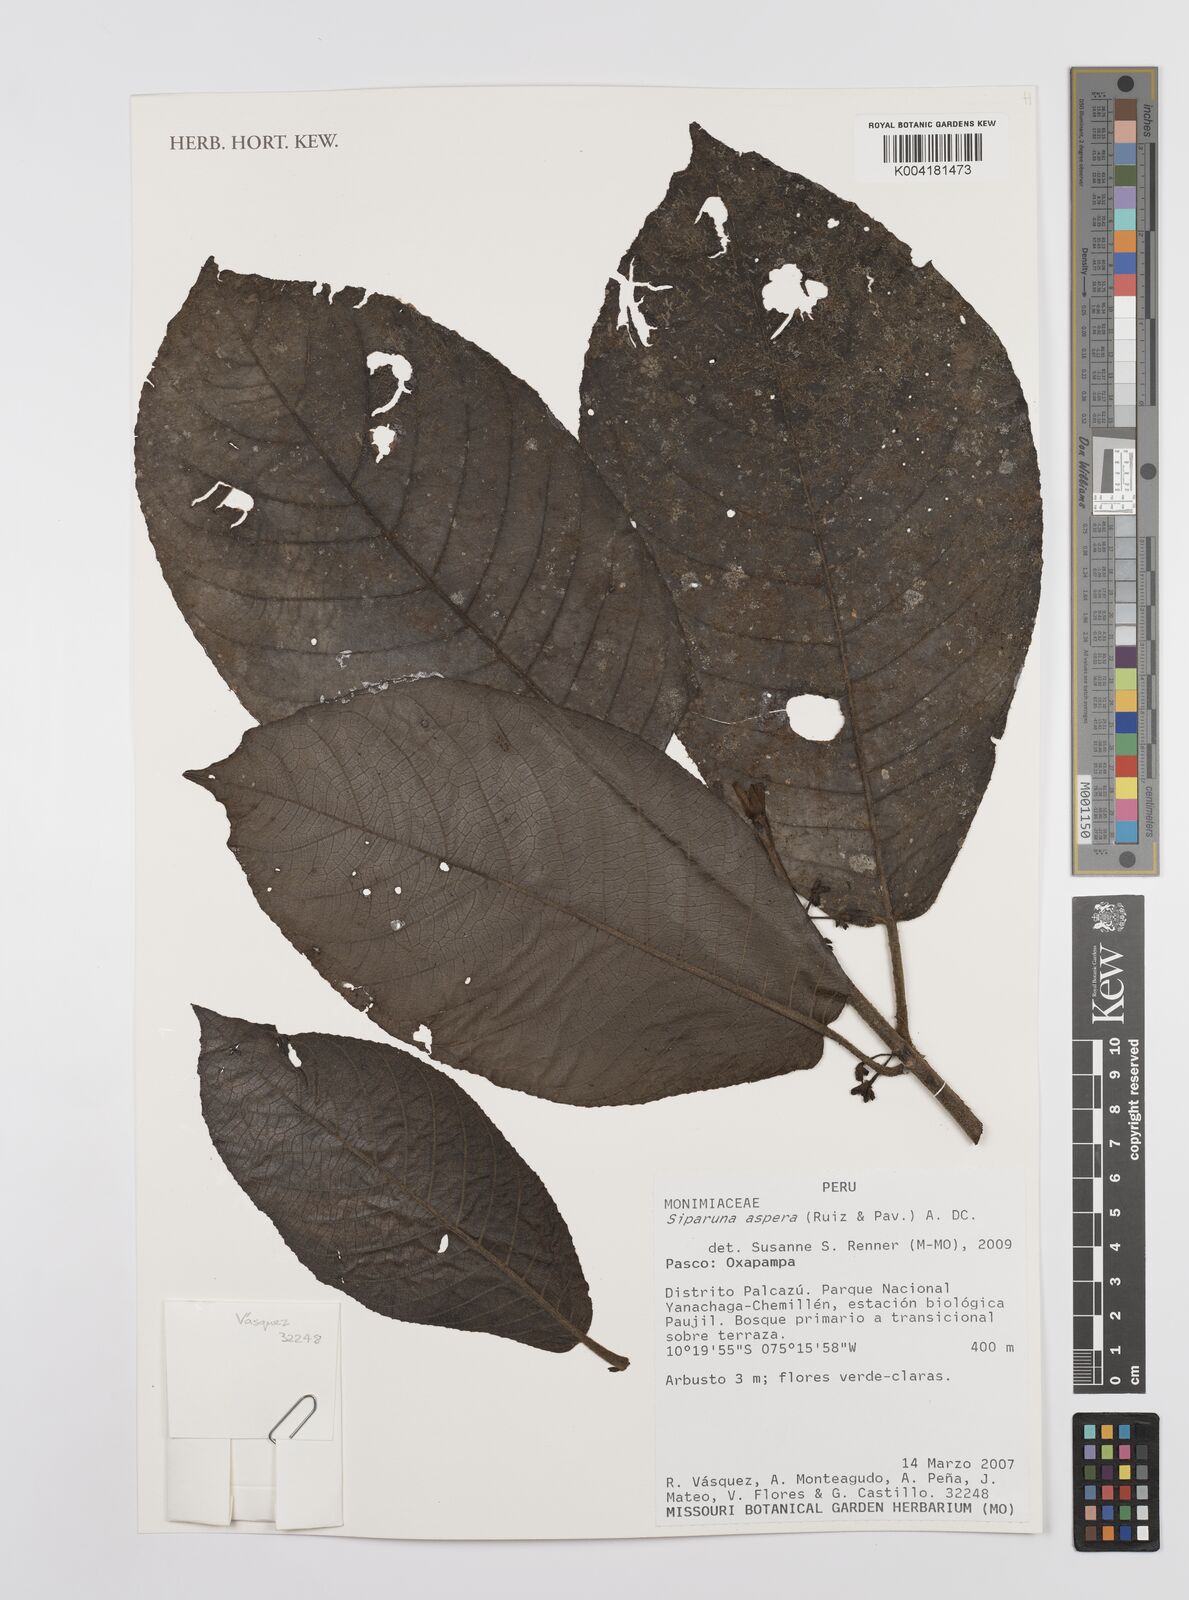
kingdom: Plantae
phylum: Tracheophyta
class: Magnoliopsida
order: Laurales
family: Siparunaceae
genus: Siparuna
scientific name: Siparuna aspera
